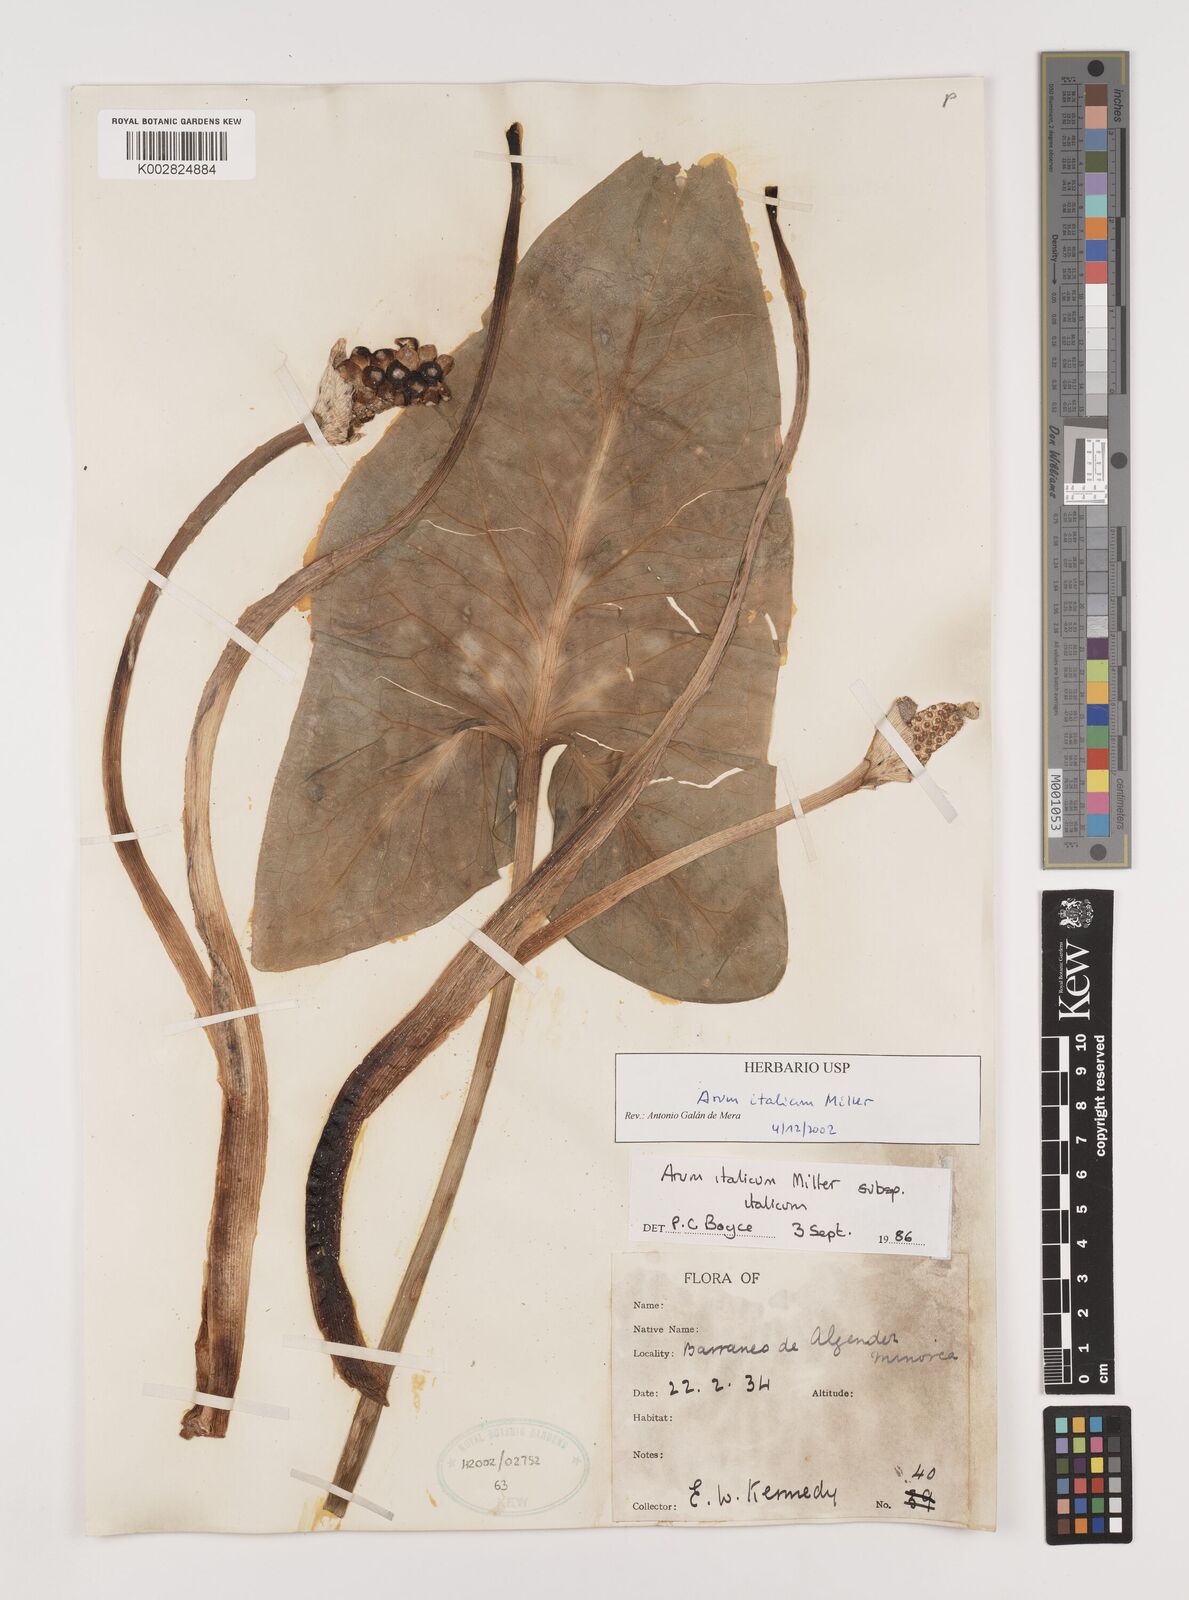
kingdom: Plantae
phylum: Tracheophyta
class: Liliopsida
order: Alismatales
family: Araceae
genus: Arum
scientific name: Arum italicum
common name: Italian lords-and-ladies
